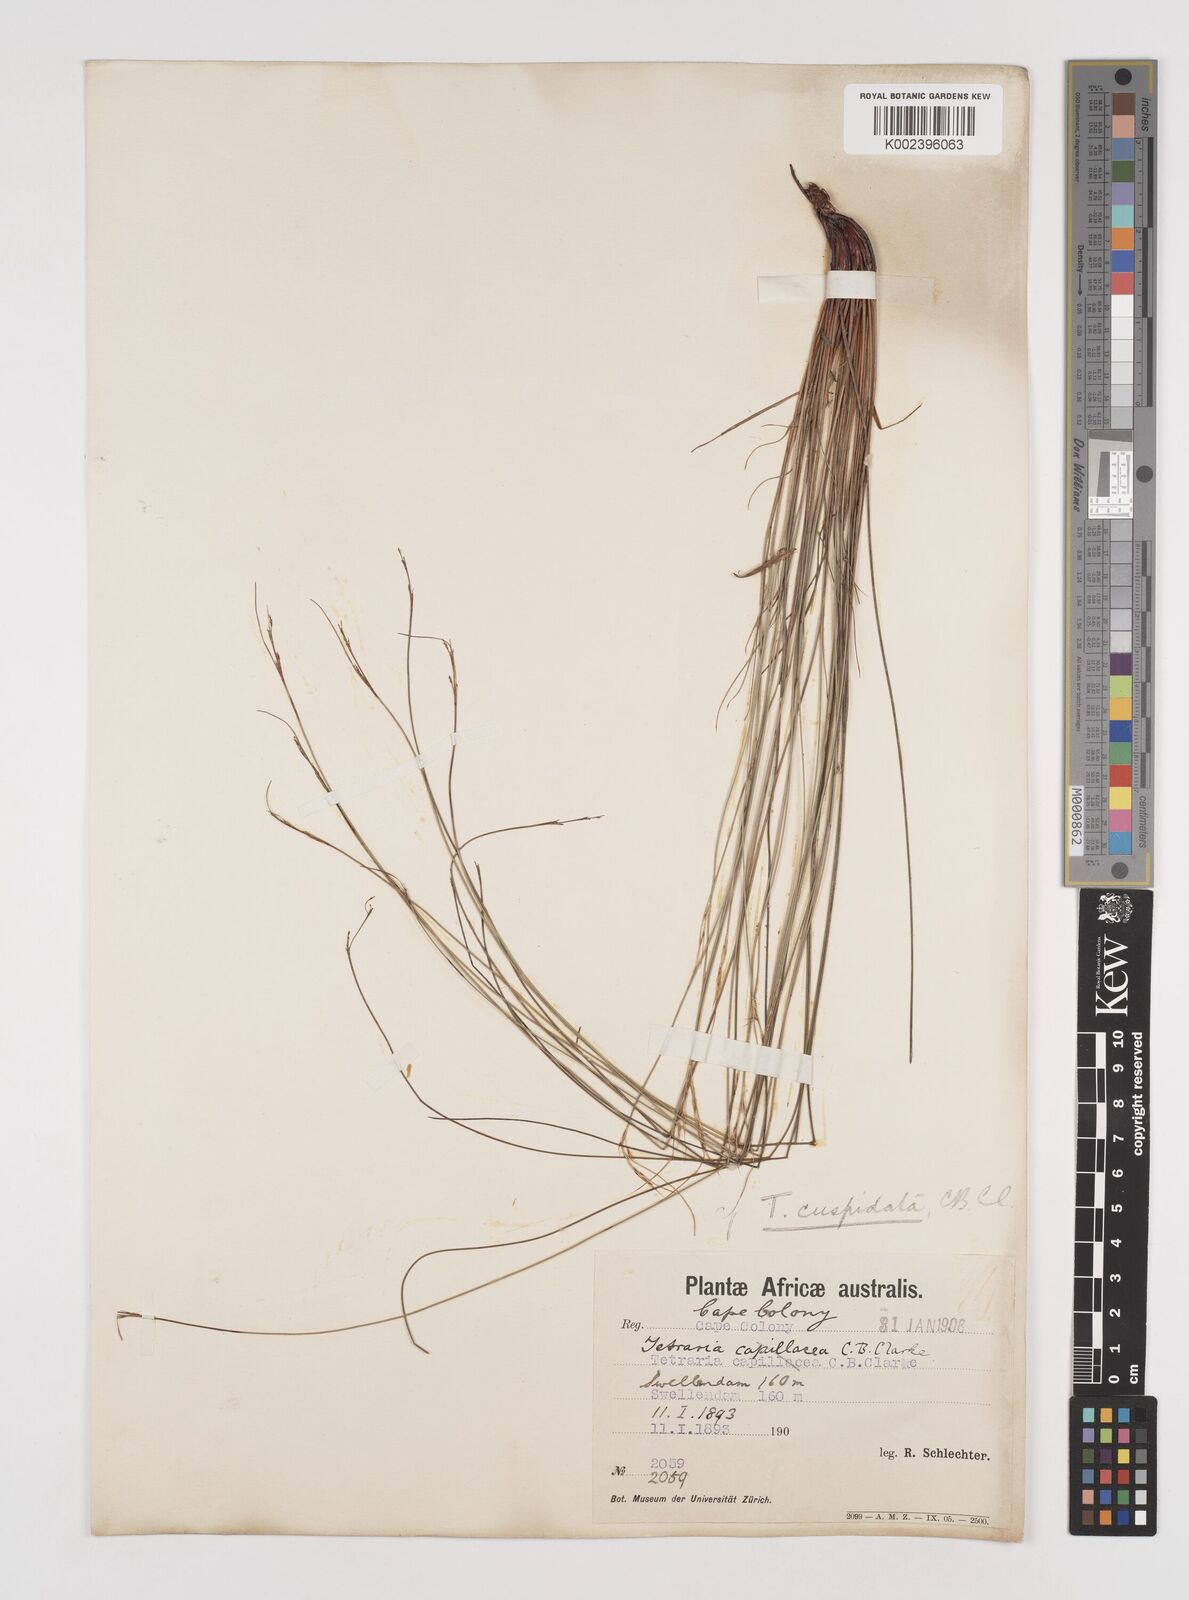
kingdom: Plantae
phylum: Tracheophyta
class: Liliopsida
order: Poales
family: Cyperaceae
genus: Schoenus
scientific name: Schoenus cuspidatus
